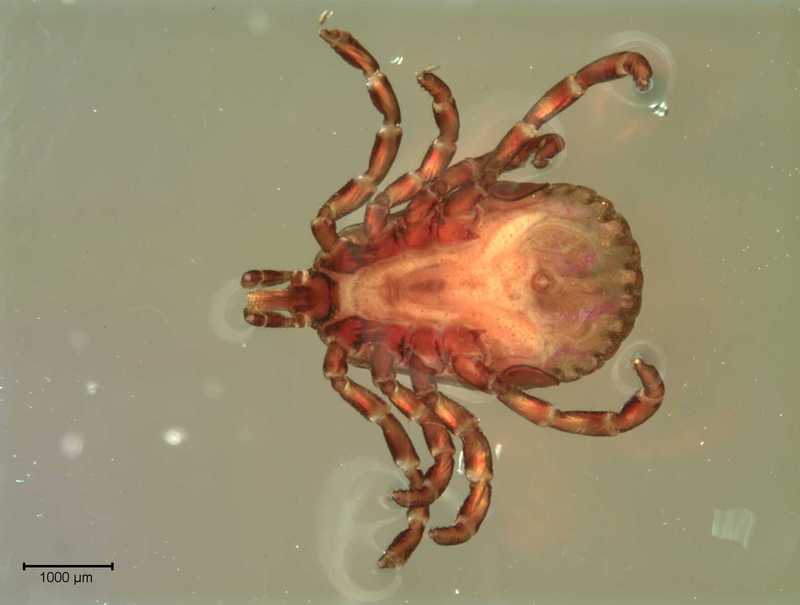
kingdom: Animalia
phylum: Arthropoda
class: Arachnida
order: Ixodida
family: Ixodidae
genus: Amblyomma
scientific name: Amblyomma ovale
